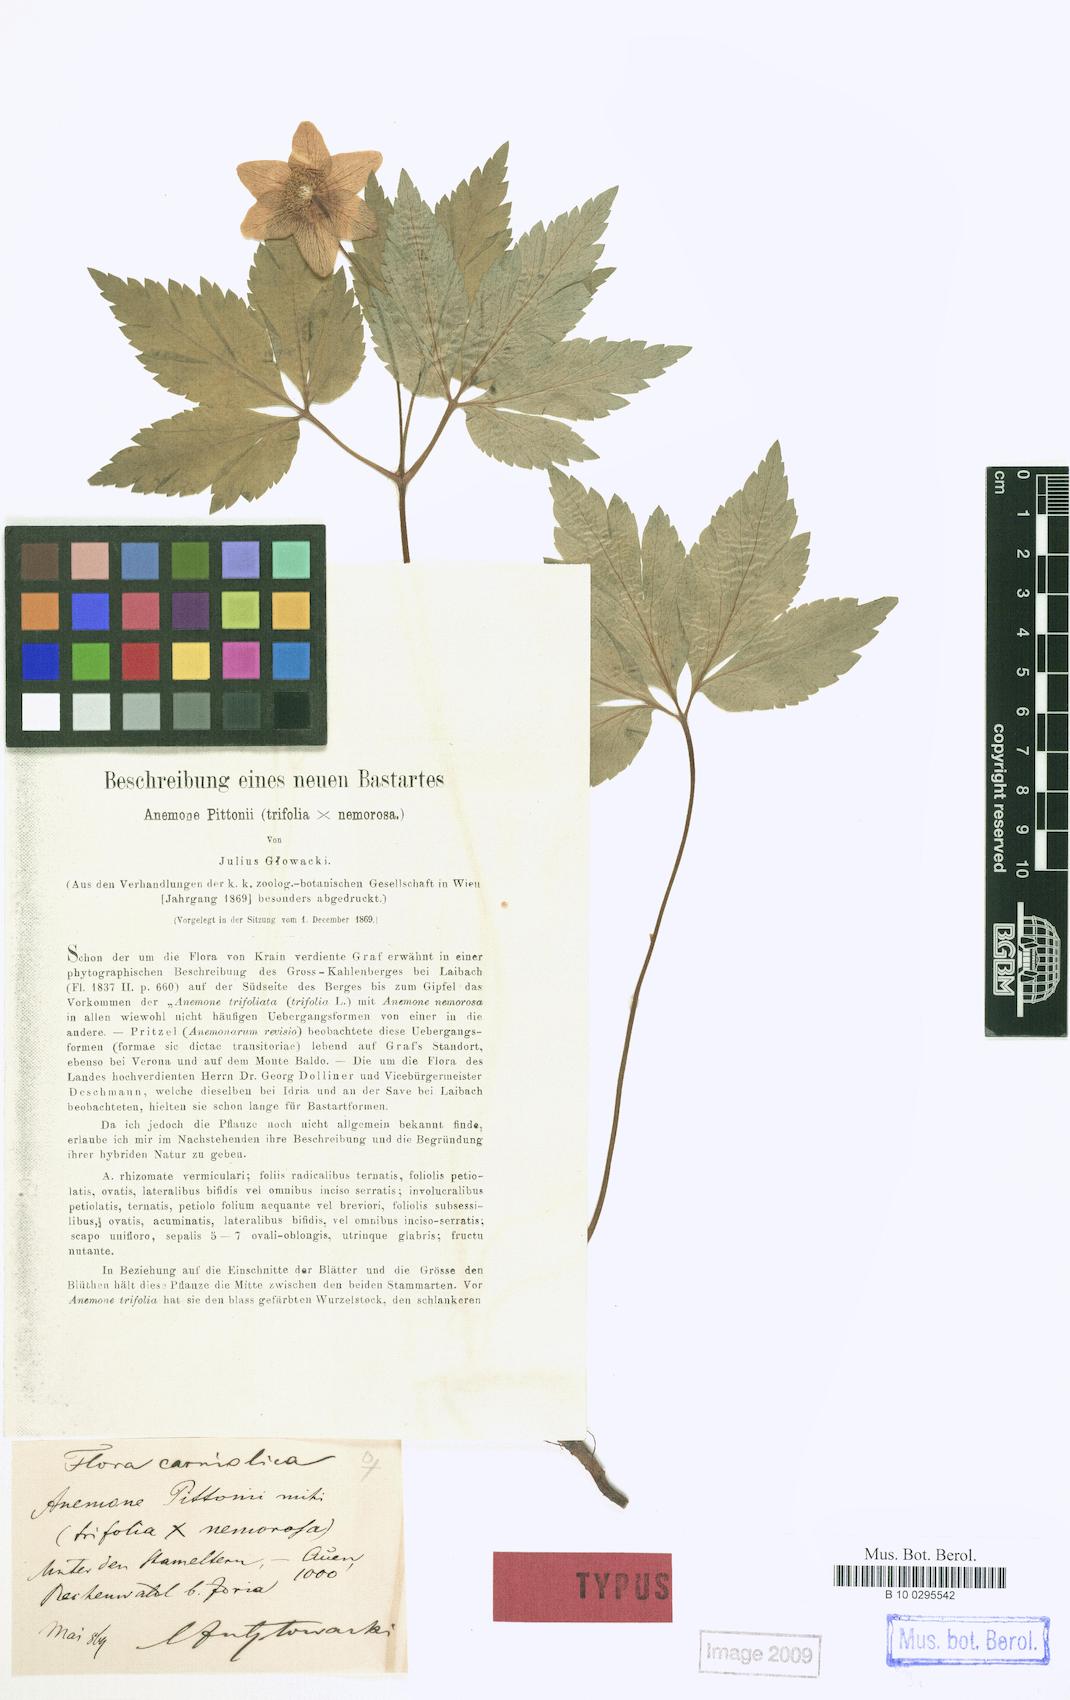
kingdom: Plantae
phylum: Tracheophyta
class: Magnoliopsida
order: Ranunculales
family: Ranunculaceae
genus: Anemone
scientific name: Anemone pittonii
